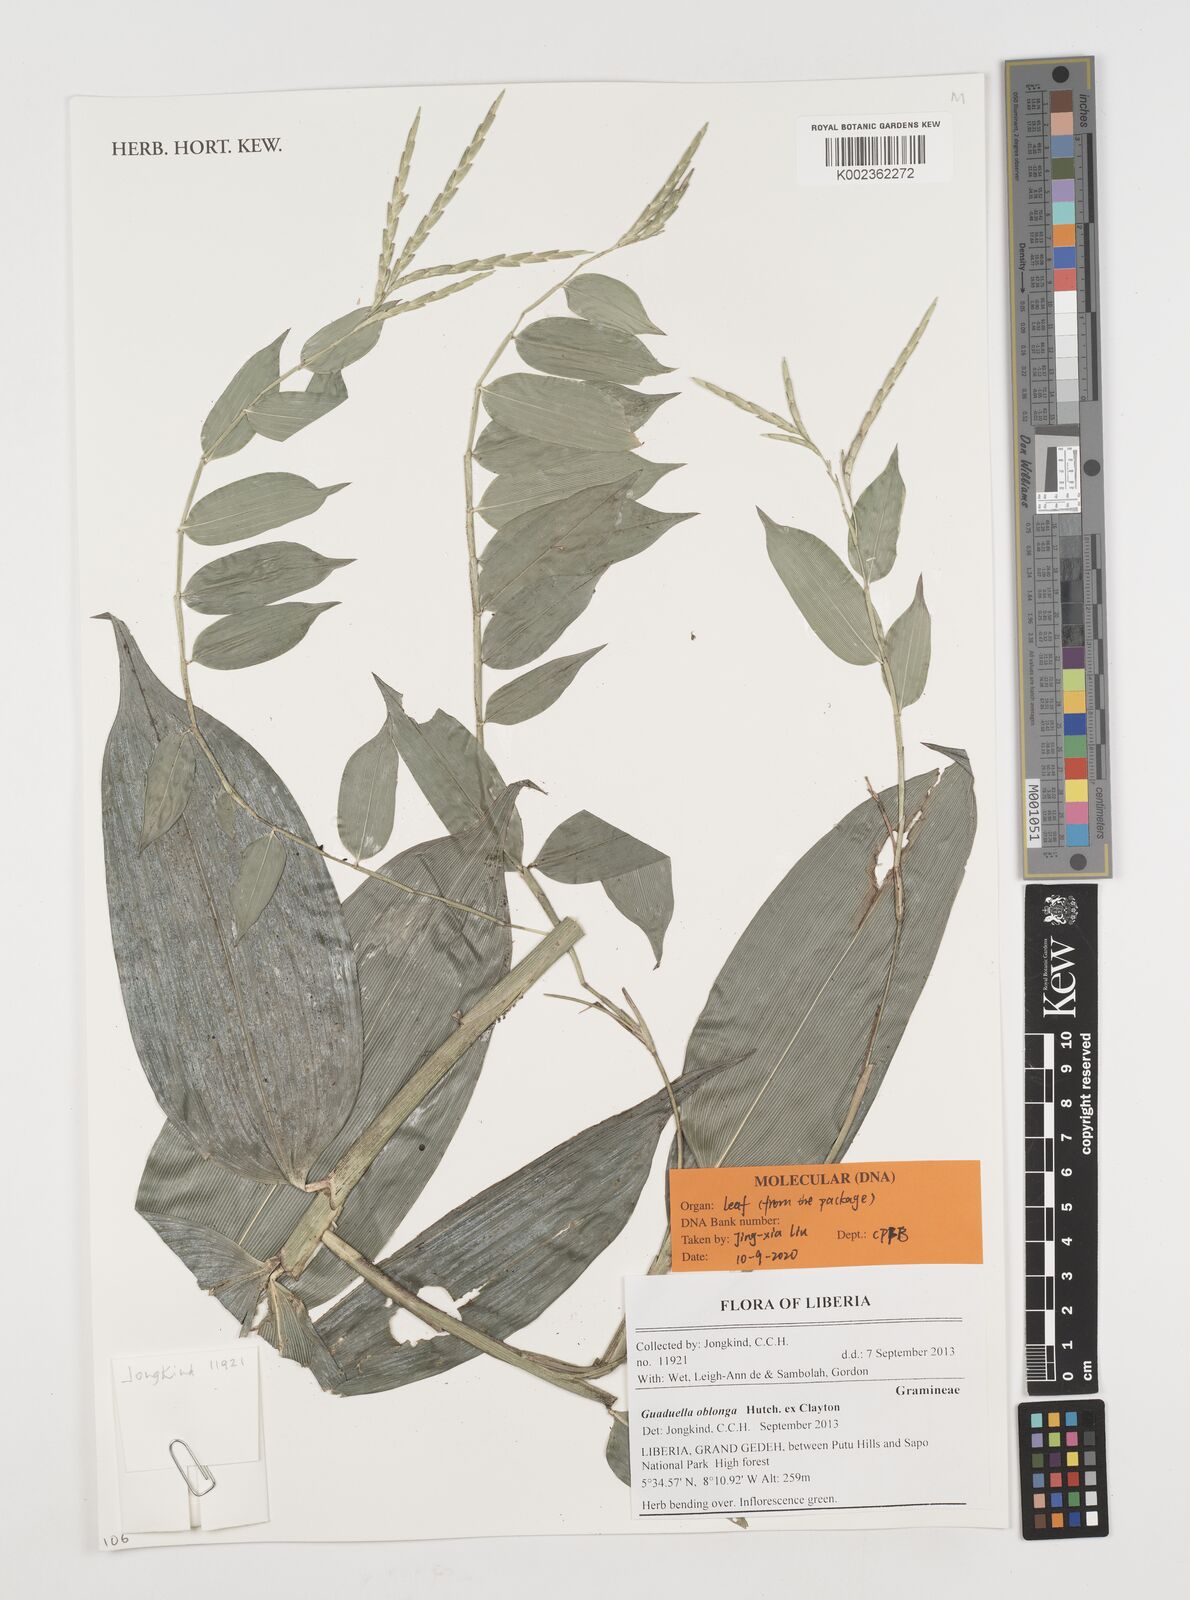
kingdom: Plantae
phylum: Tracheophyta
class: Liliopsida
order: Poales
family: Poaceae
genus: Guaduella
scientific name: Guaduella oblonga
